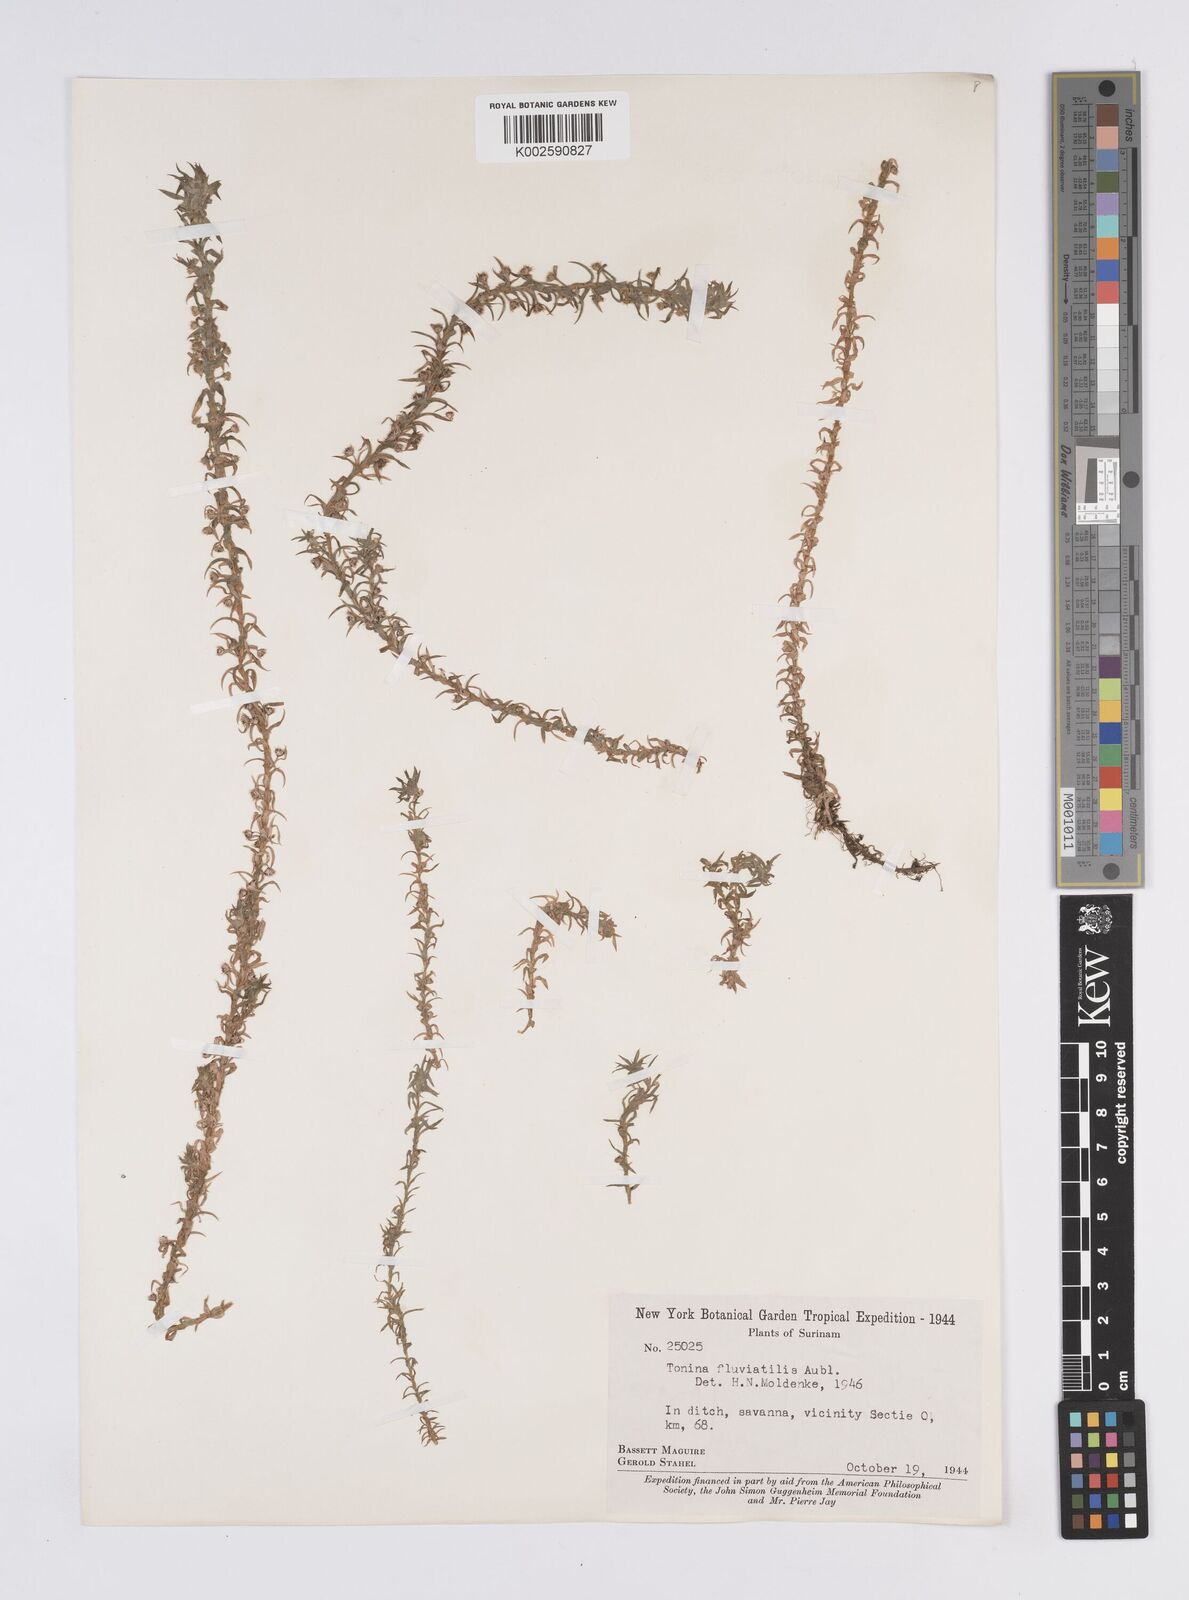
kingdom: Plantae
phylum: Tracheophyta
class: Liliopsida
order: Poales
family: Eriocaulaceae
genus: Paepalanthus
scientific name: Paepalanthus fluviatilis
